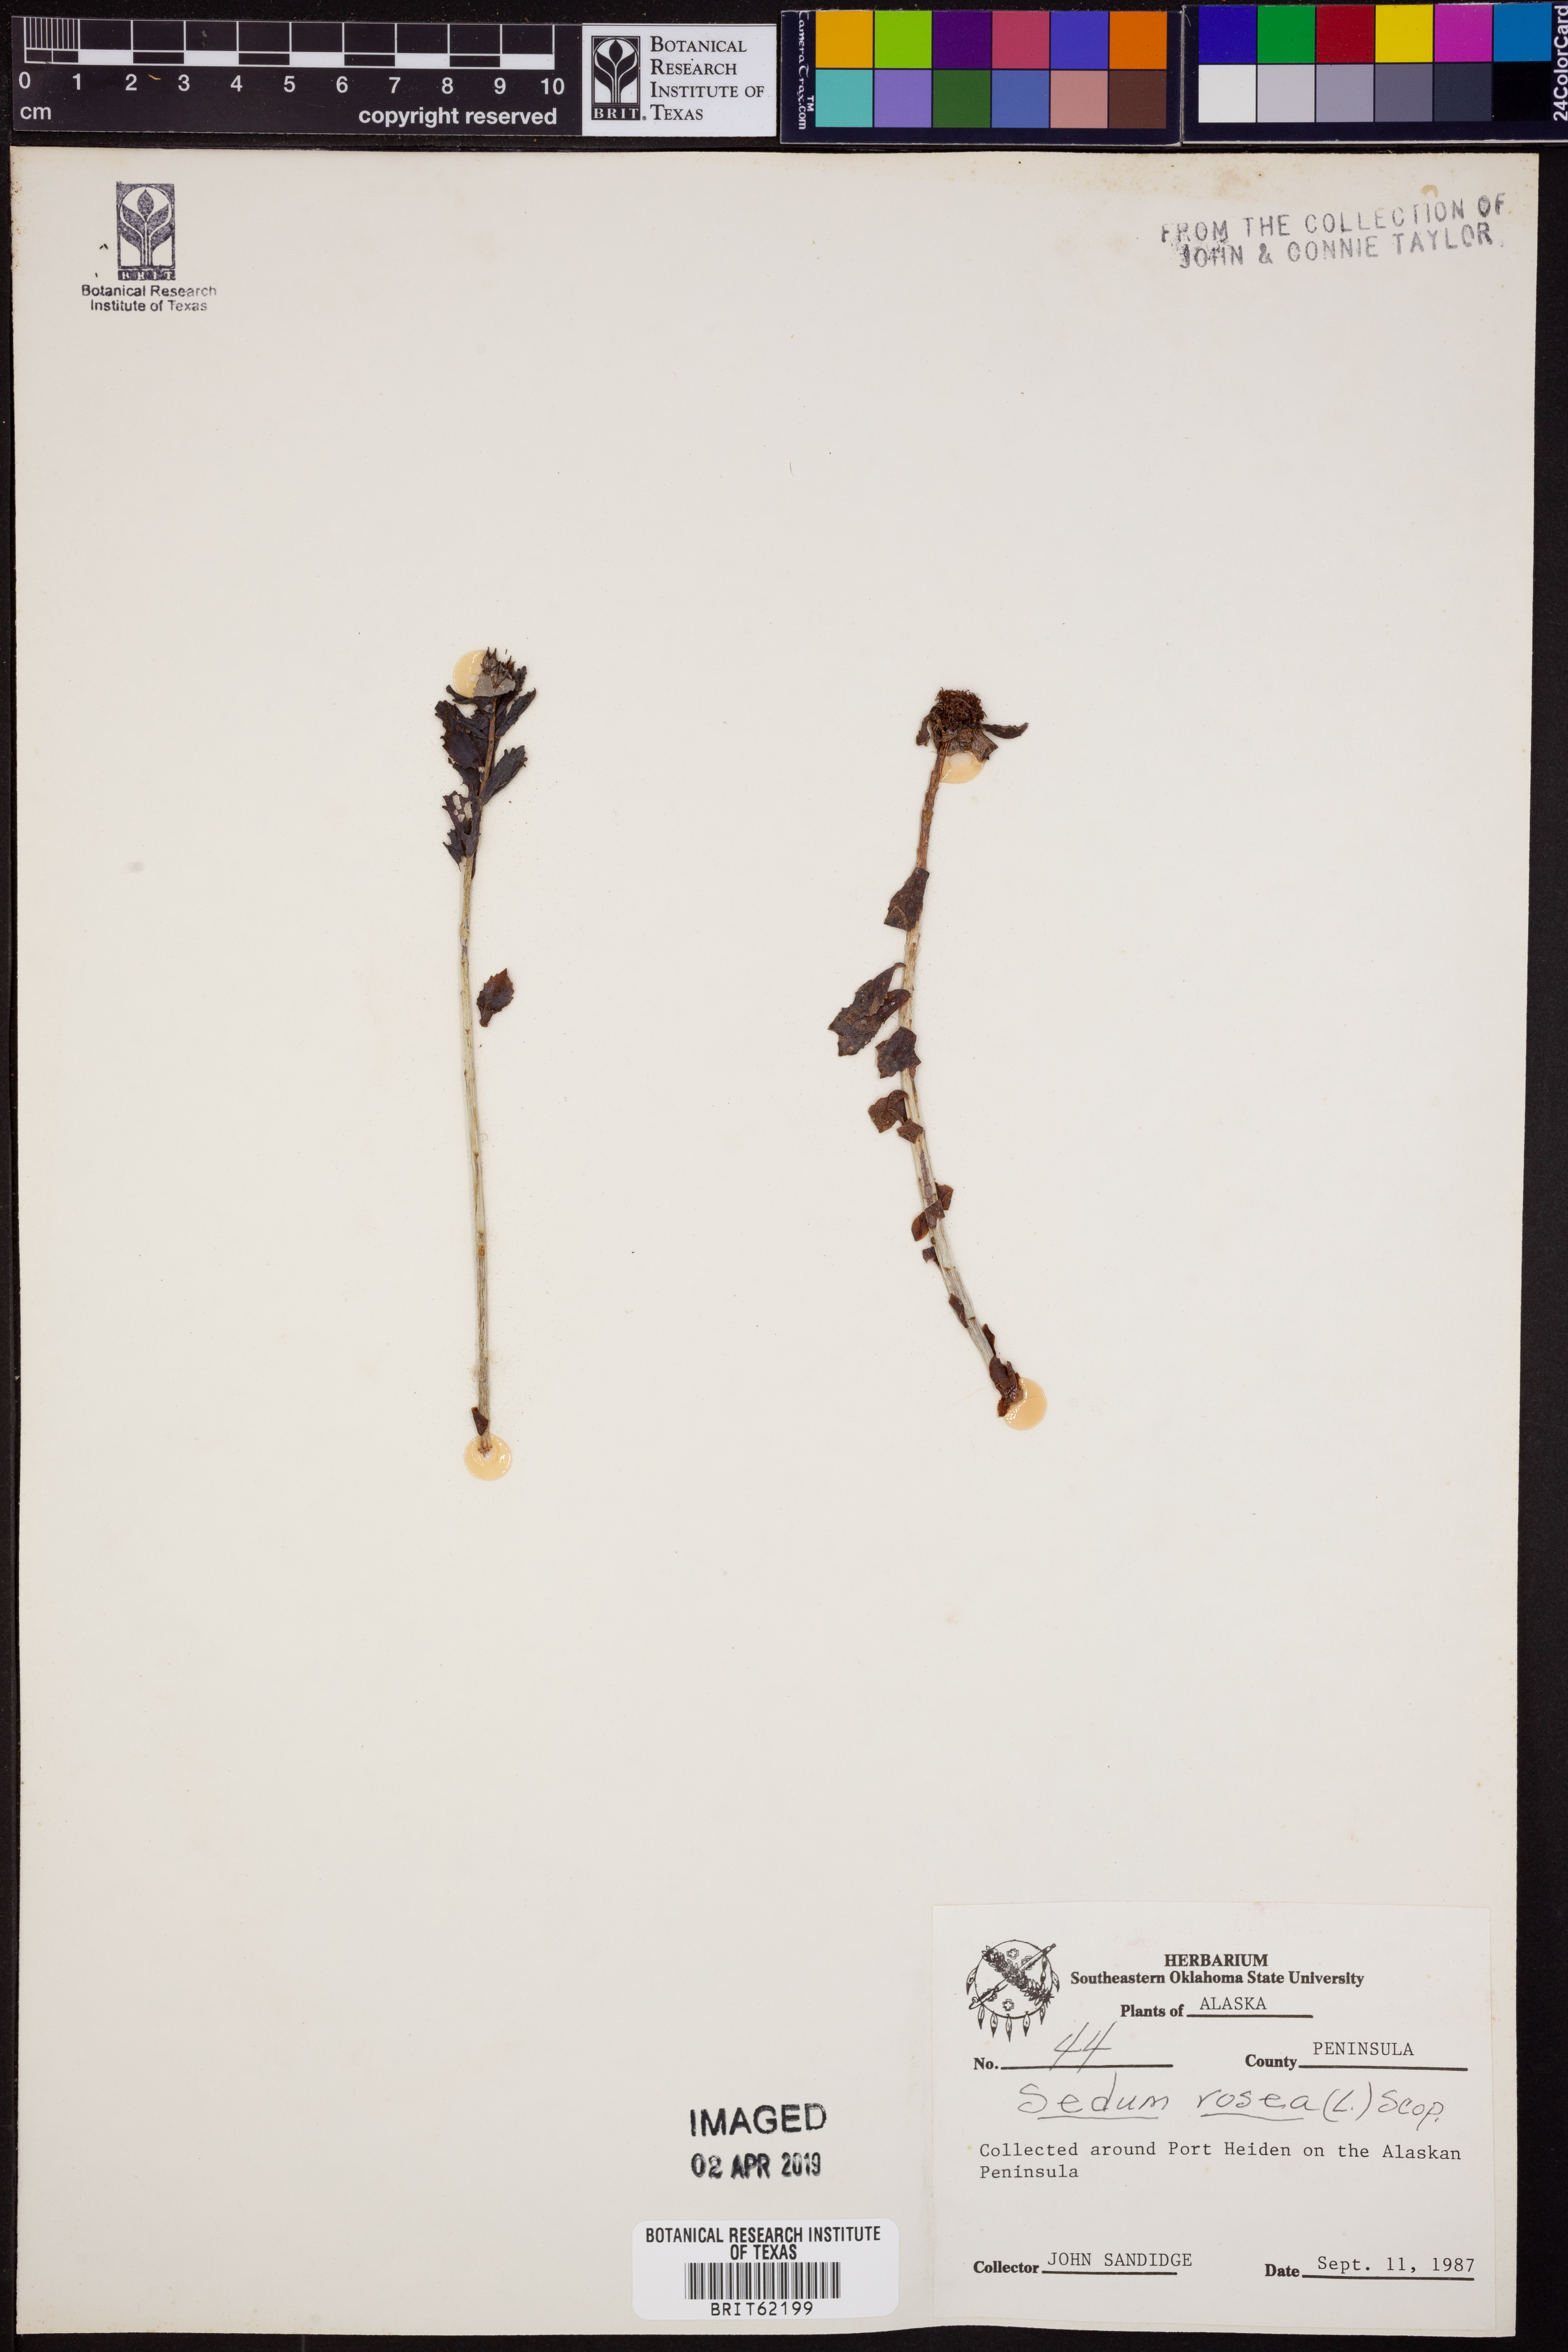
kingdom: Plantae
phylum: Tracheophyta
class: Magnoliopsida
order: Saxifragales
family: Crassulaceae
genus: Rhodiola
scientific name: Rhodiola rosea
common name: Roseroot
